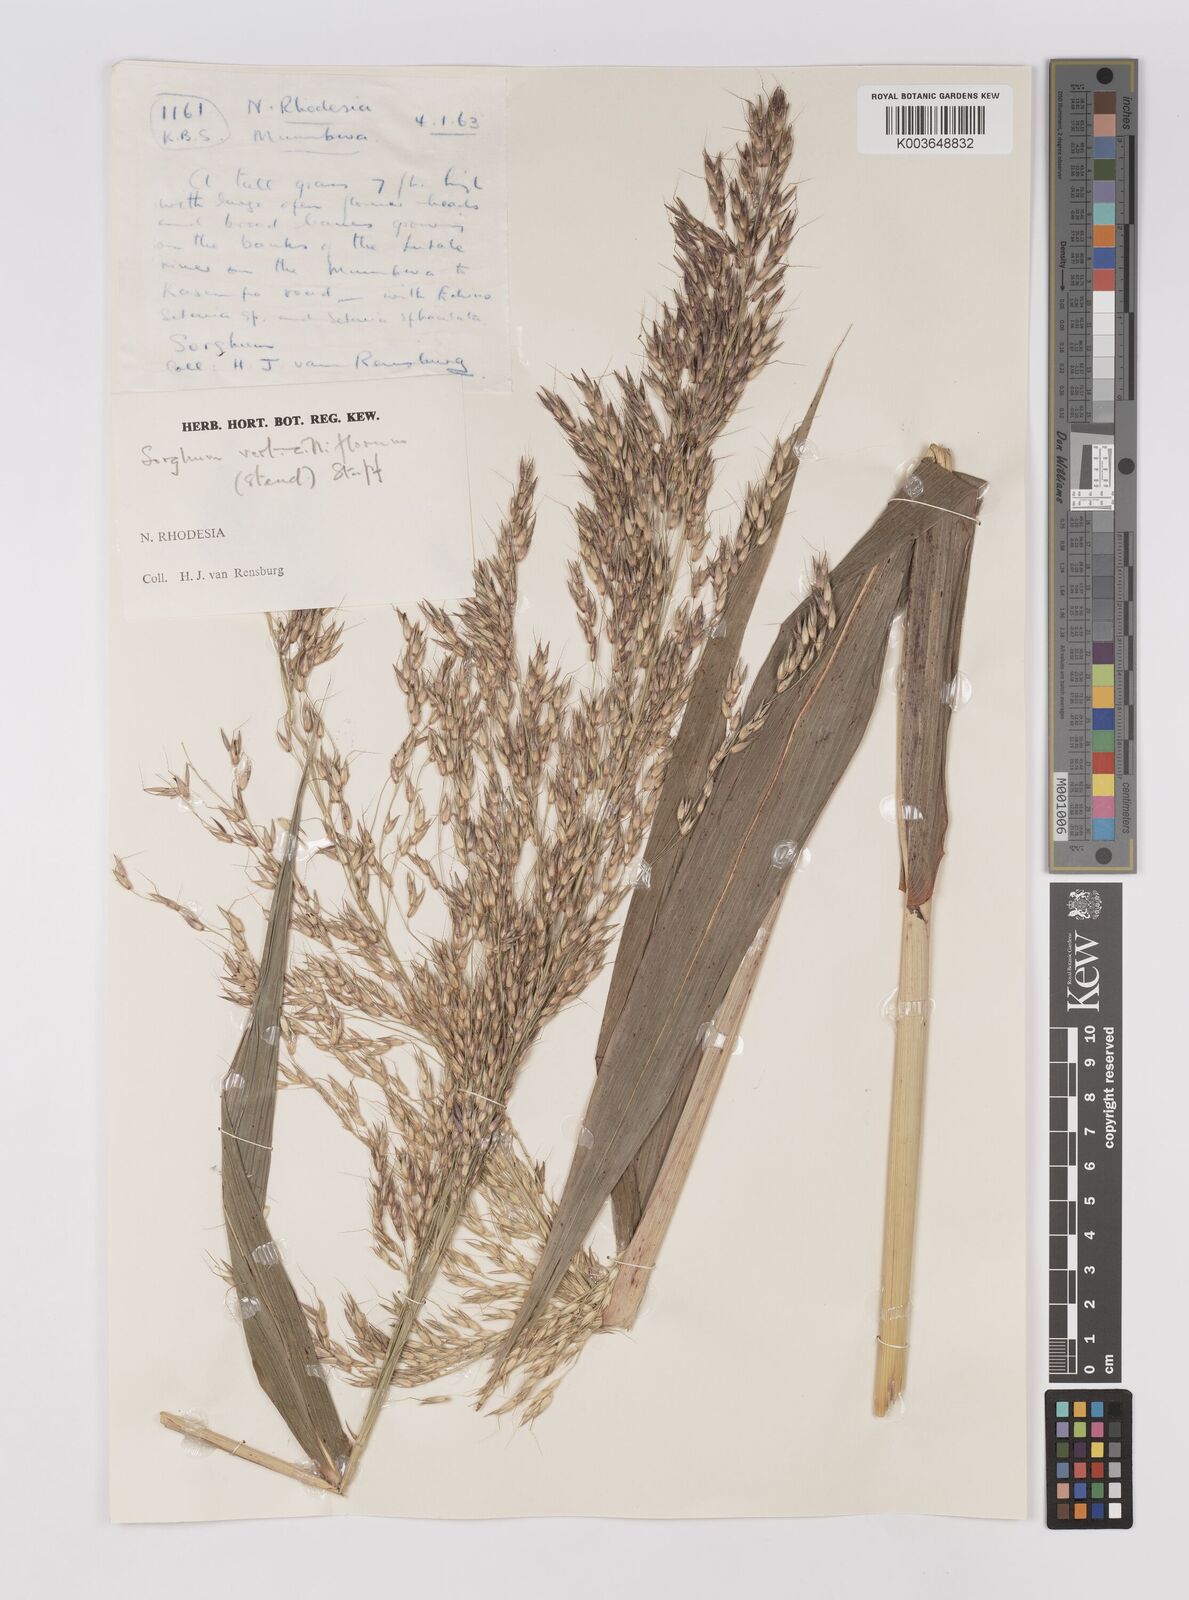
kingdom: Plantae
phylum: Tracheophyta
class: Liliopsida
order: Poales
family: Poaceae
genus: Sorghum
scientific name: Sorghum arundinaceum
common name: Sorghum
